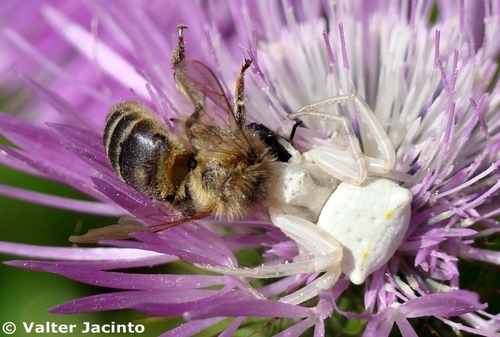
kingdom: Animalia
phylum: Arthropoda
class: Arachnida
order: Araneae
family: Thomisidae
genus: Thomisus
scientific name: Thomisus onustus
